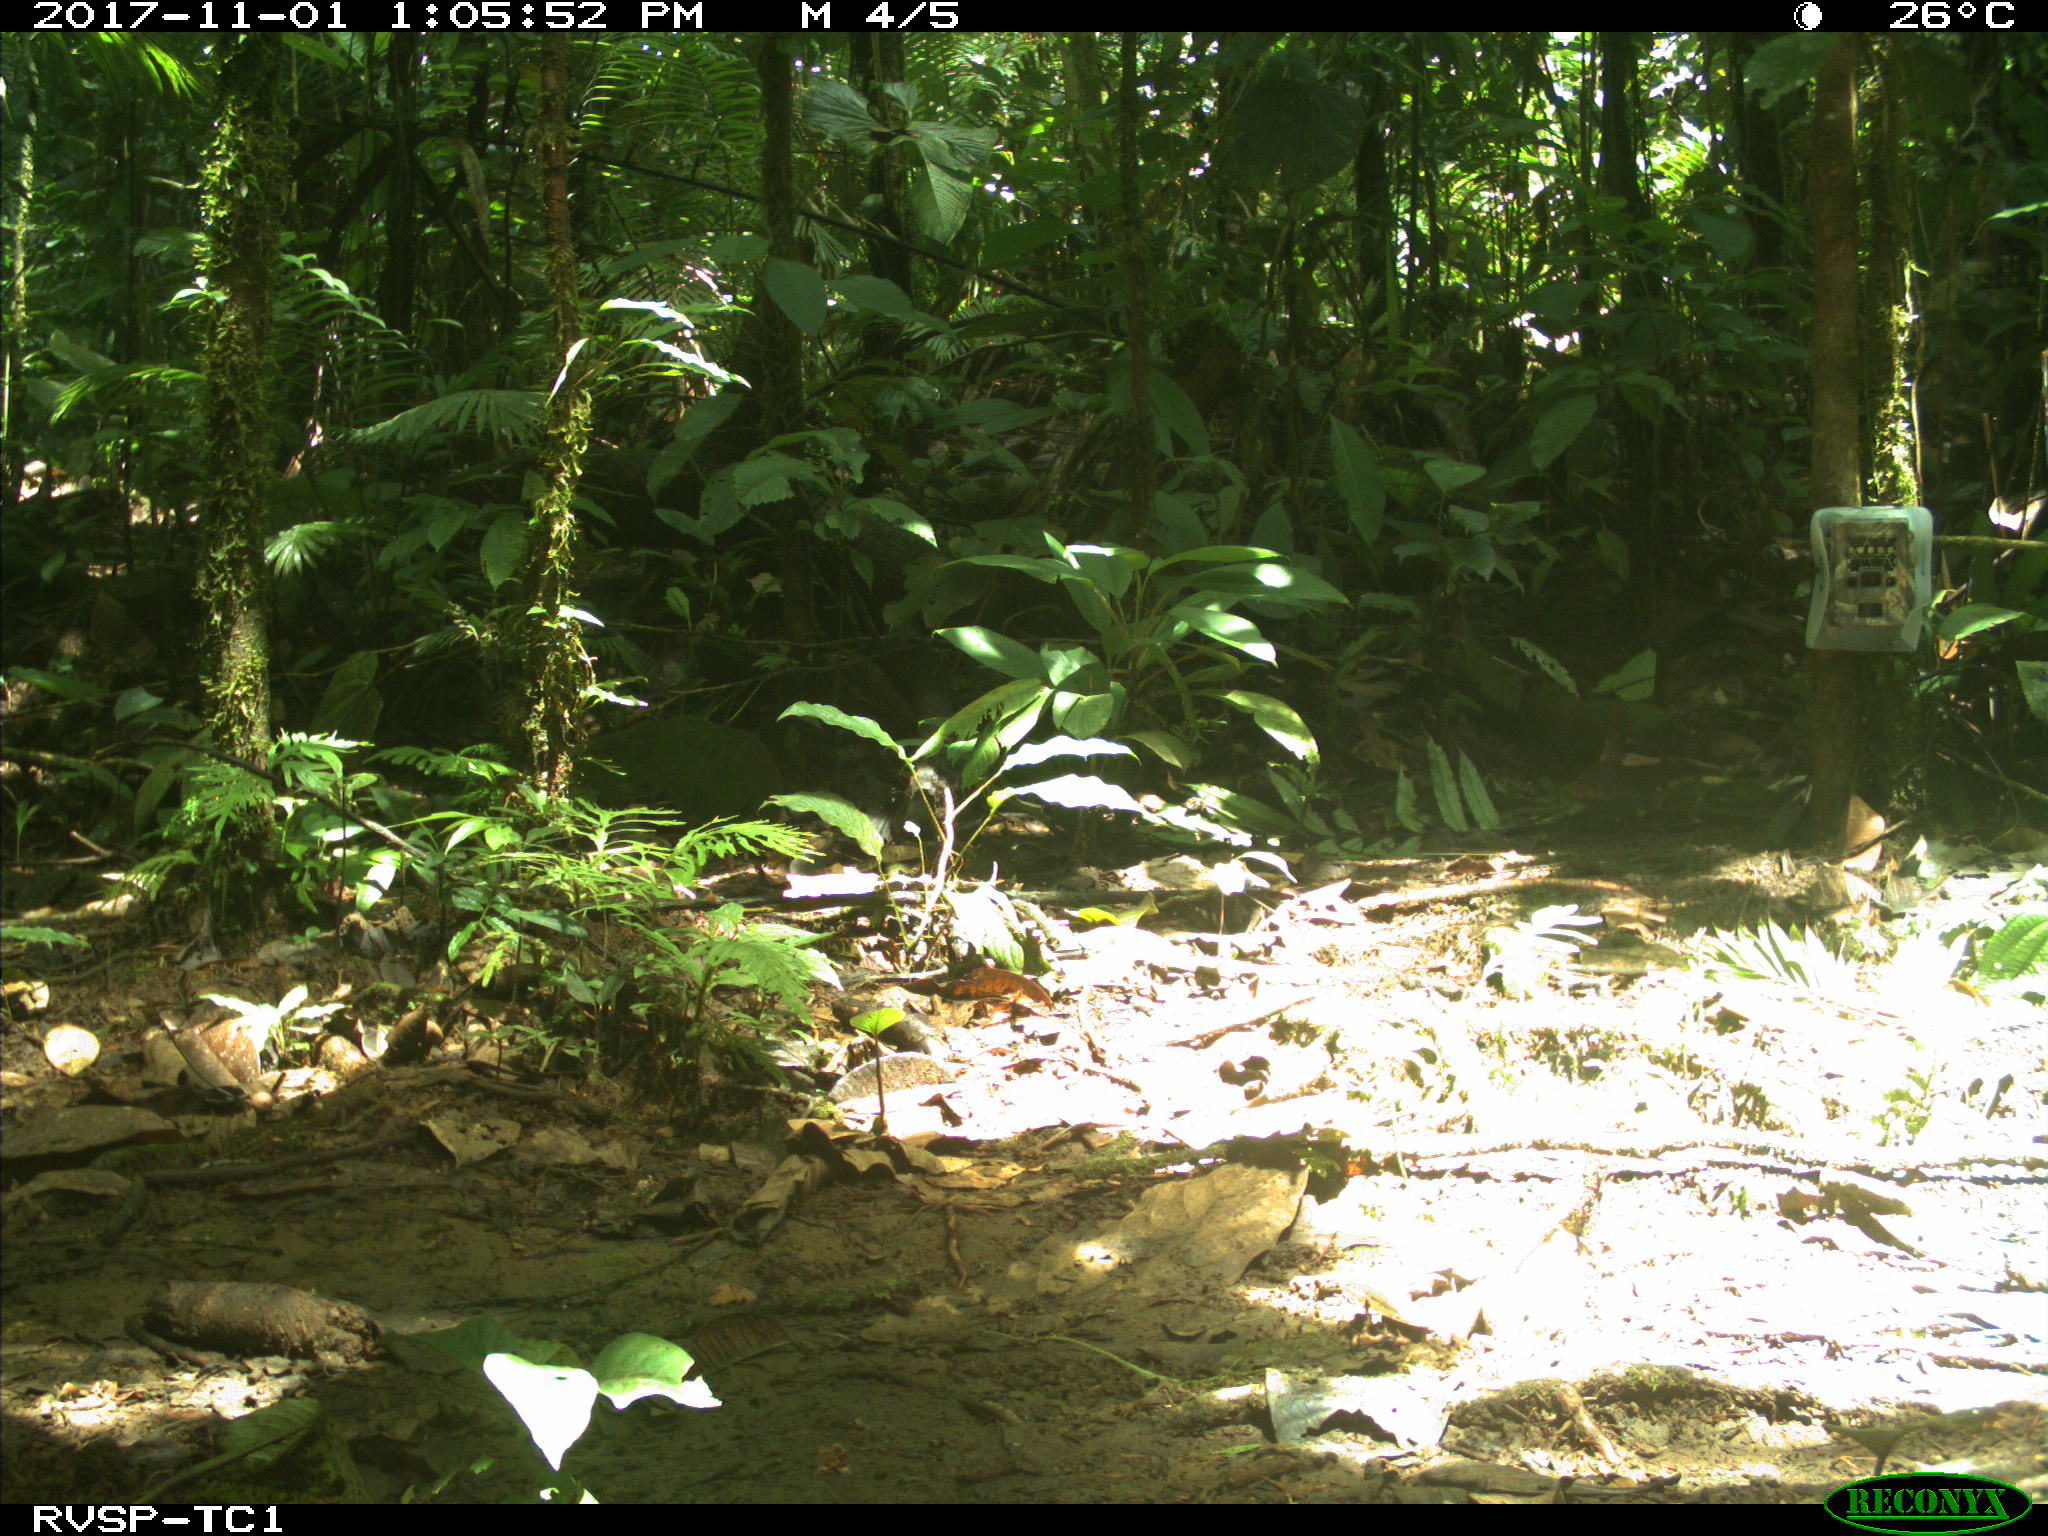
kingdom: Animalia
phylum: Chordata
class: Mammalia
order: Rodentia
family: Dasyproctidae
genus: Dasyprocta
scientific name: Dasyprocta punctata
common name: Central american agouti
